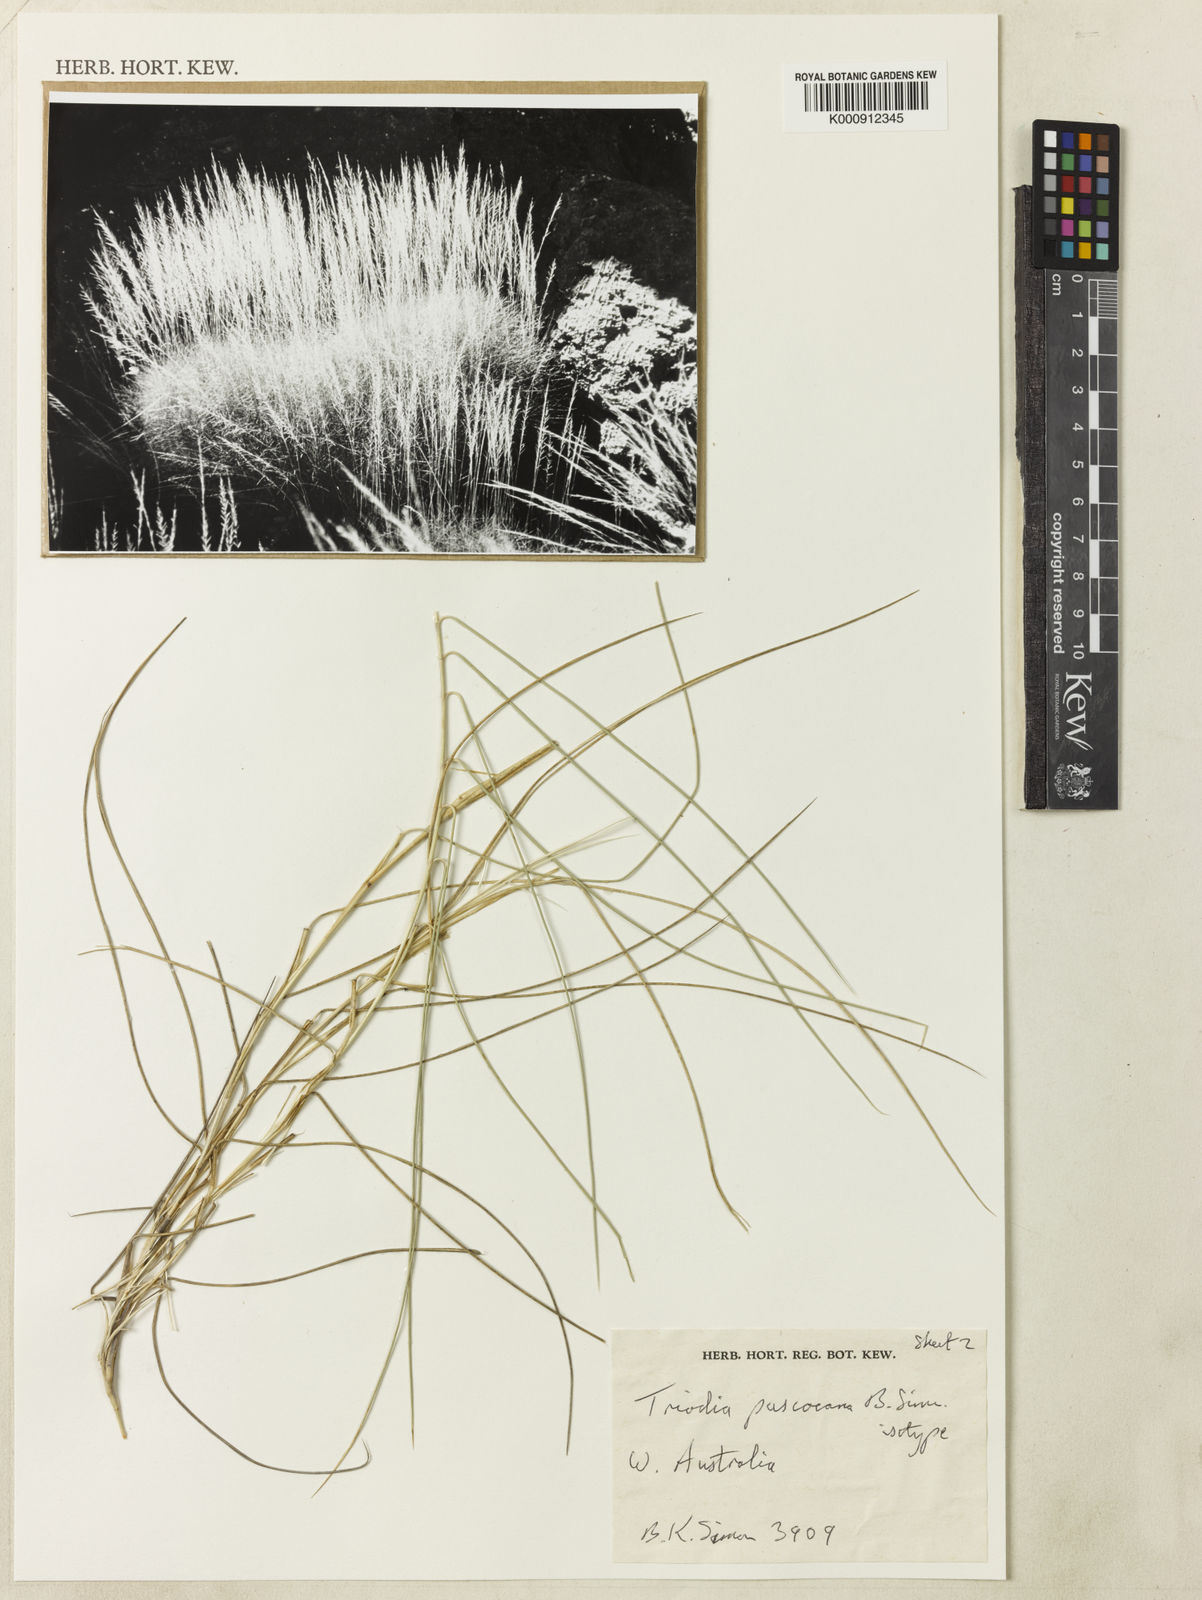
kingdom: Plantae
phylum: Tracheophyta
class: Liliopsida
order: Poales
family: Poaceae
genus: Triodia
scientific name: Triodia pascoeana
